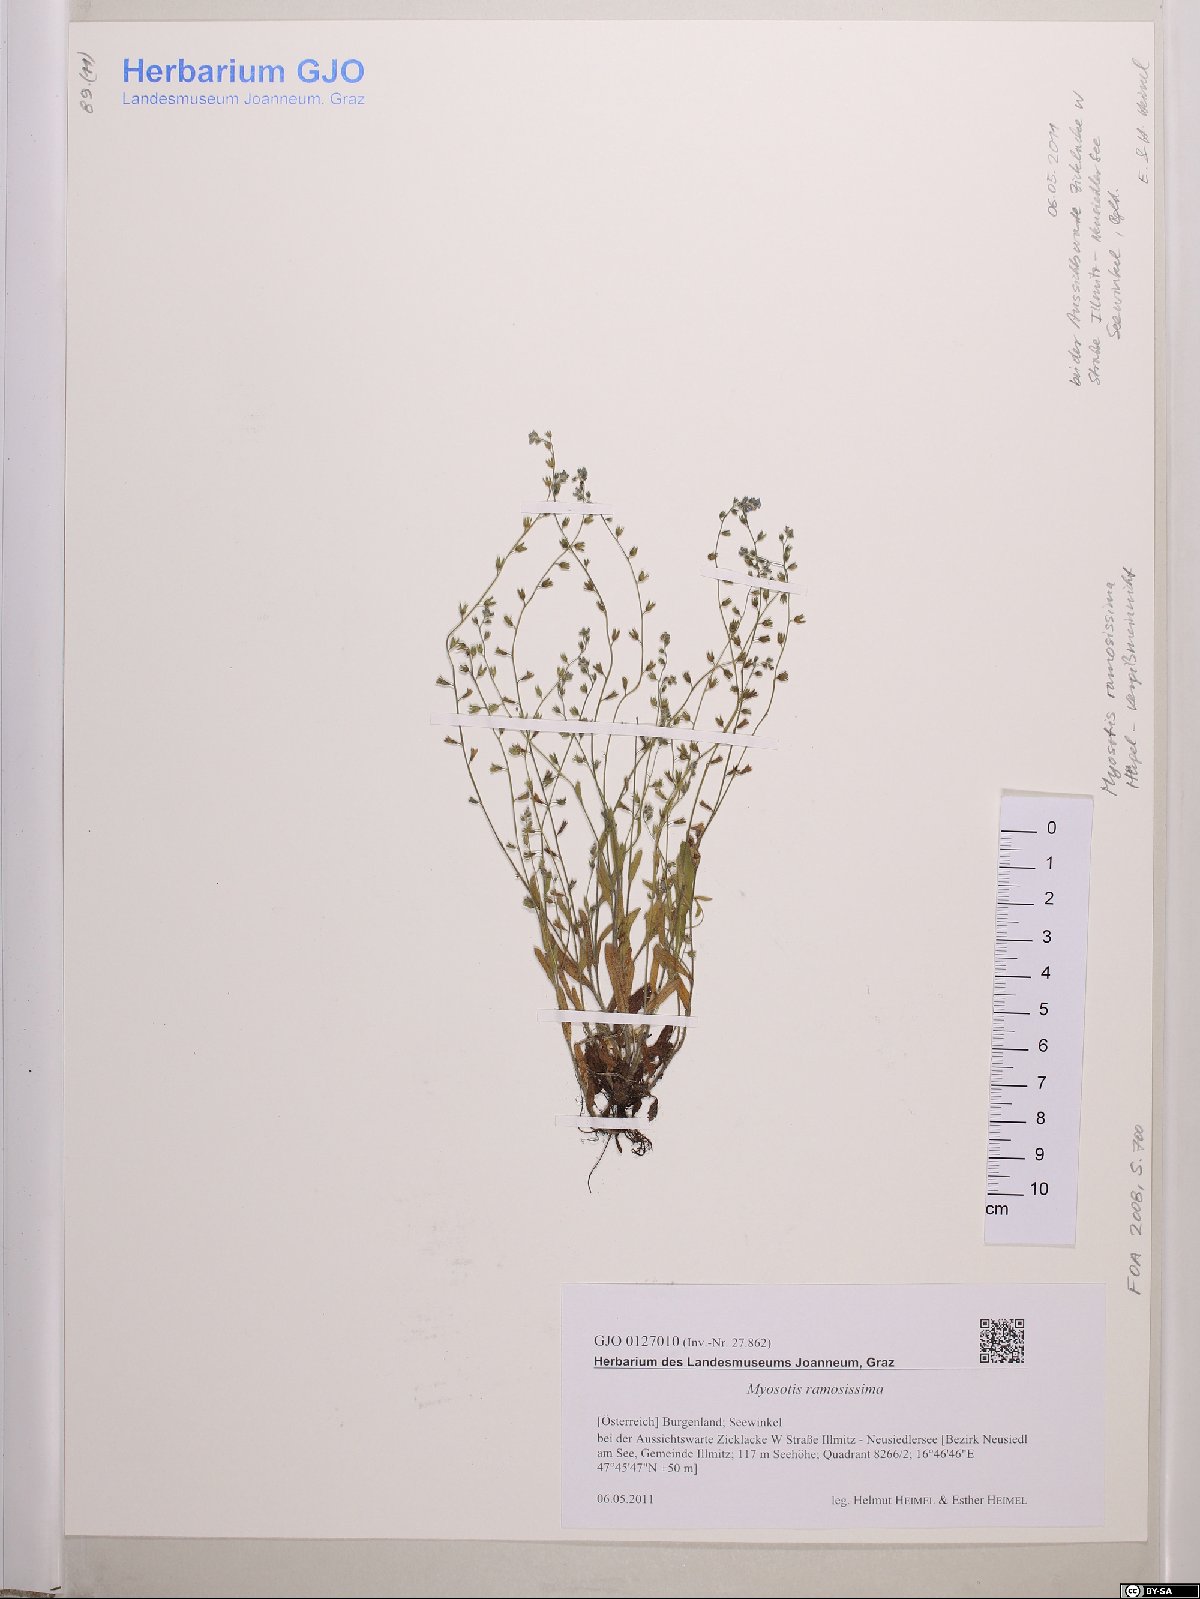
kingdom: Plantae
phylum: Tracheophyta
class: Magnoliopsida
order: Boraginales
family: Boraginaceae
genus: Myosotis
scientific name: Myosotis ramosissima
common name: Early forget-me-not
